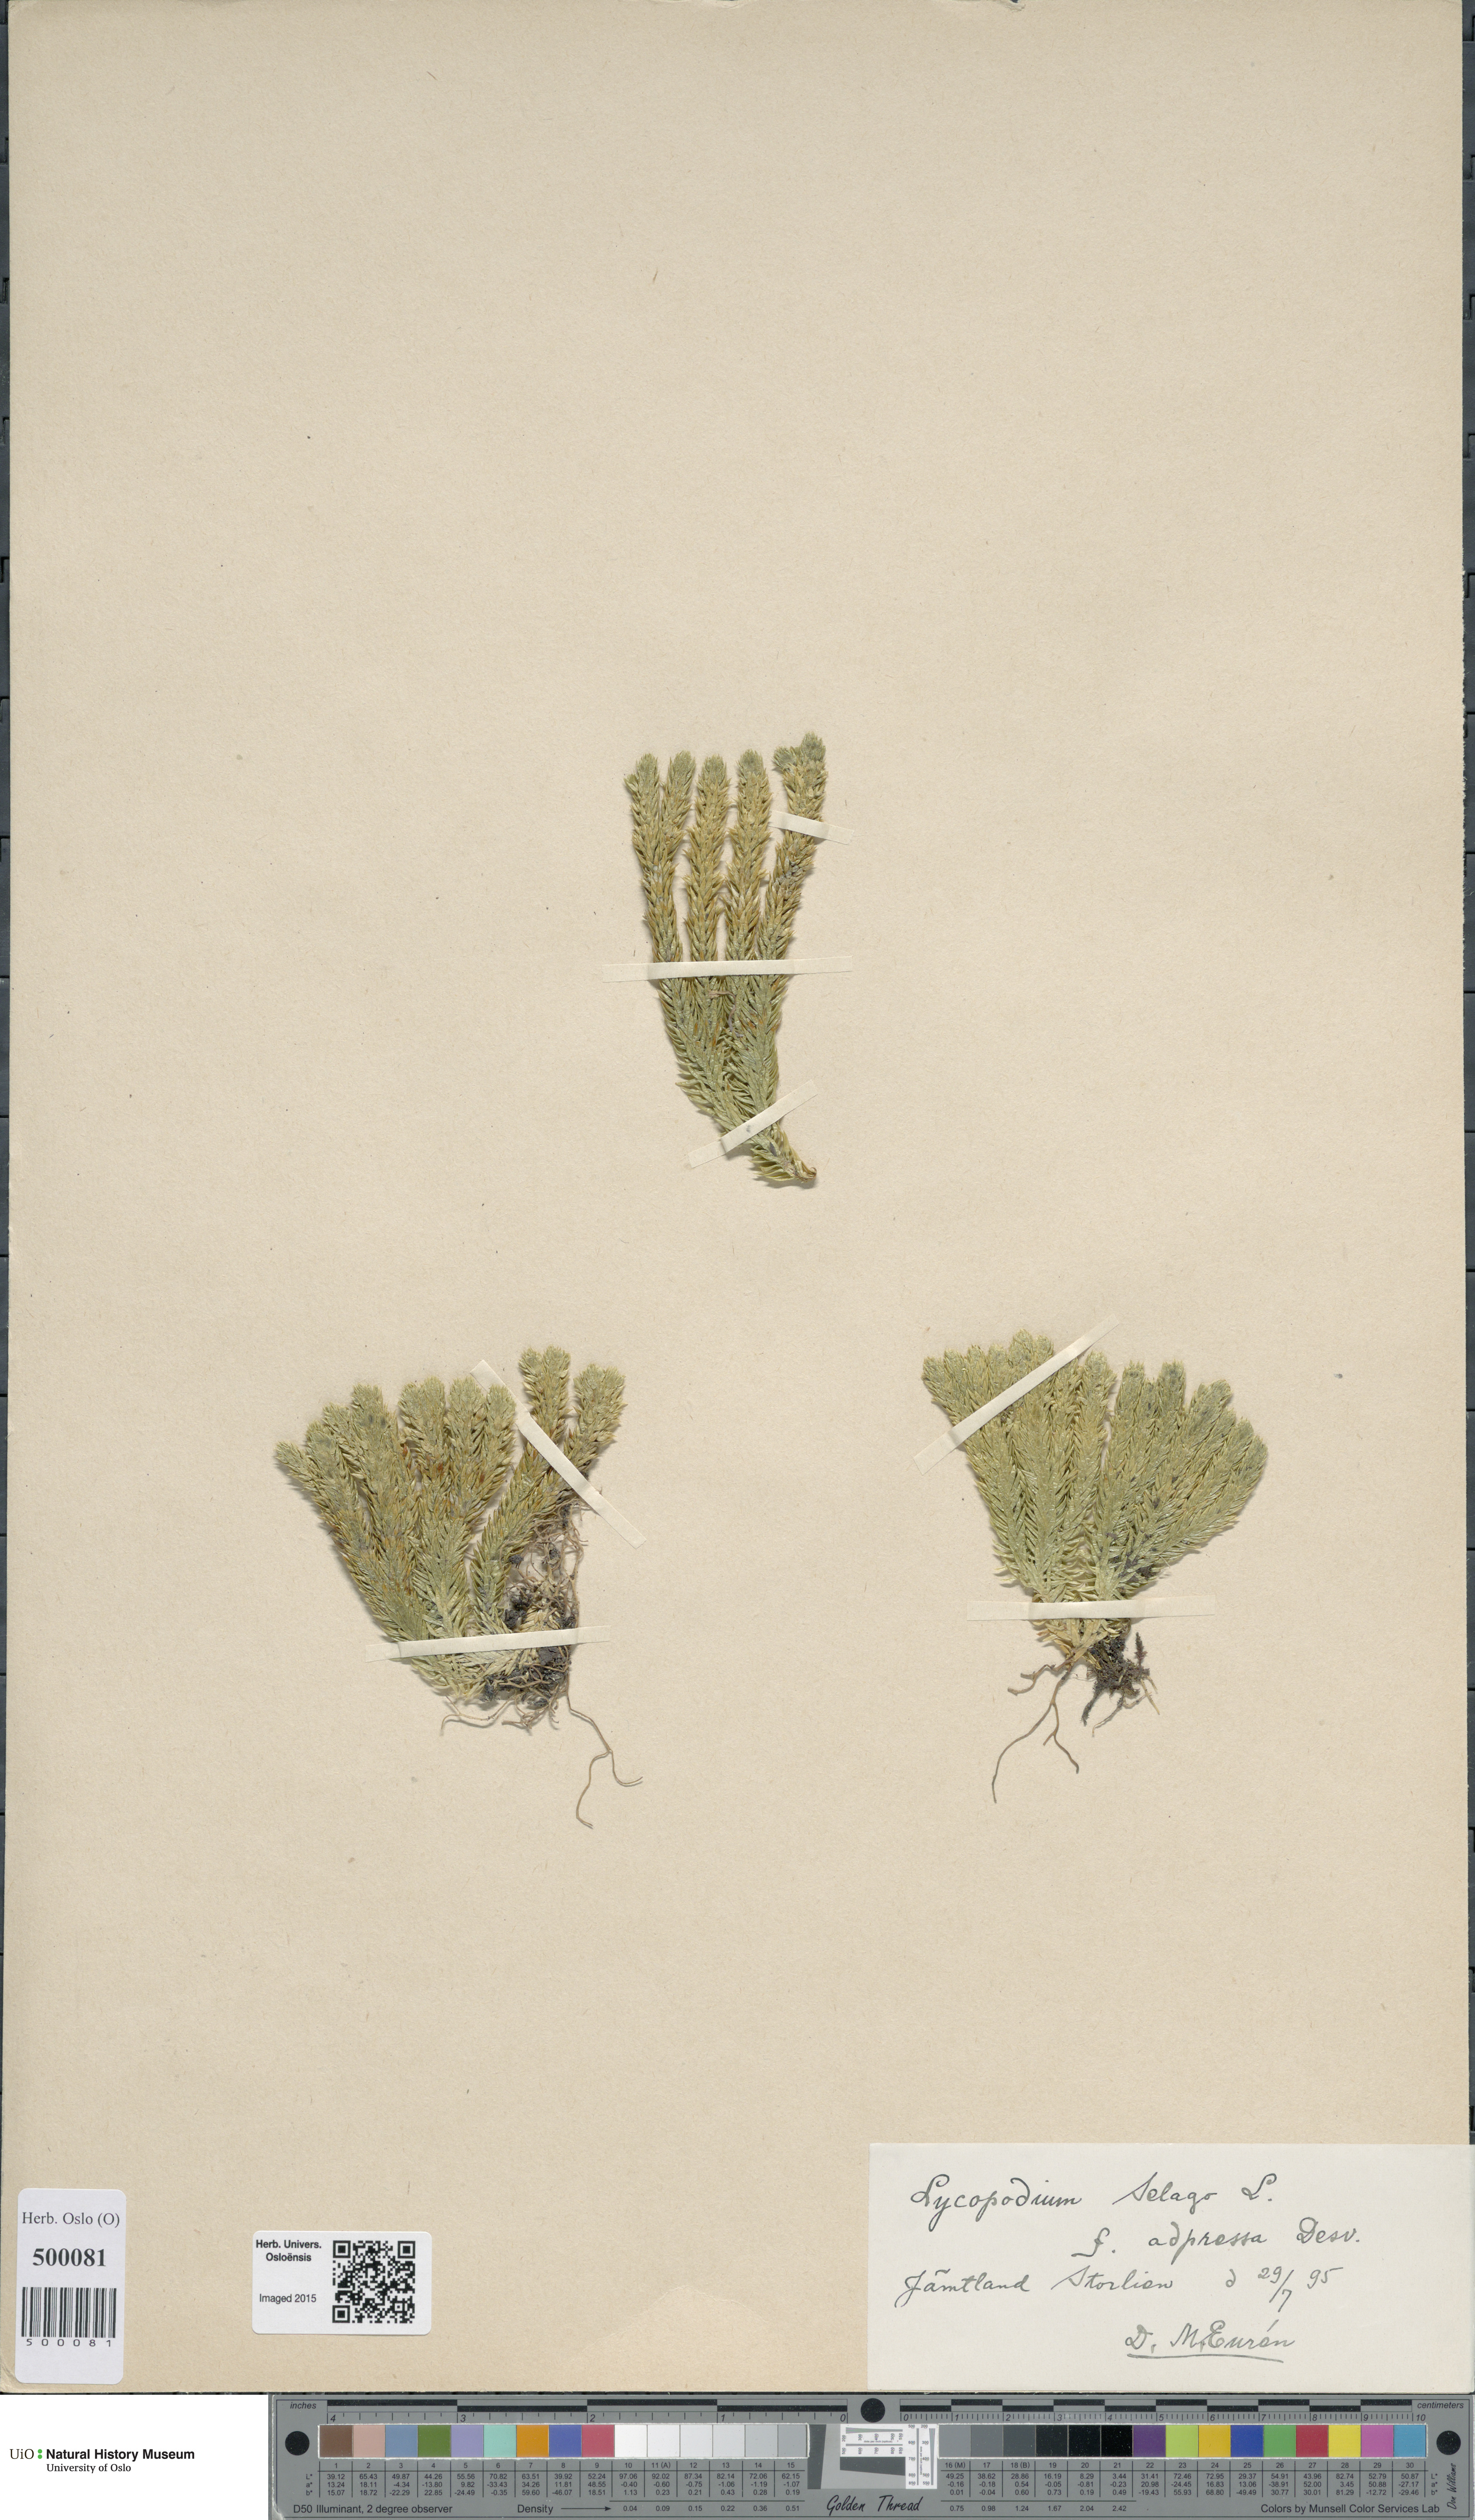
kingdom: Plantae
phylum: Tracheophyta
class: Lycopodiopsida
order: Lycopodiales
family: Lycopodiaceae
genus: Huperzia
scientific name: Huperzia selago
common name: Northern firmoss
